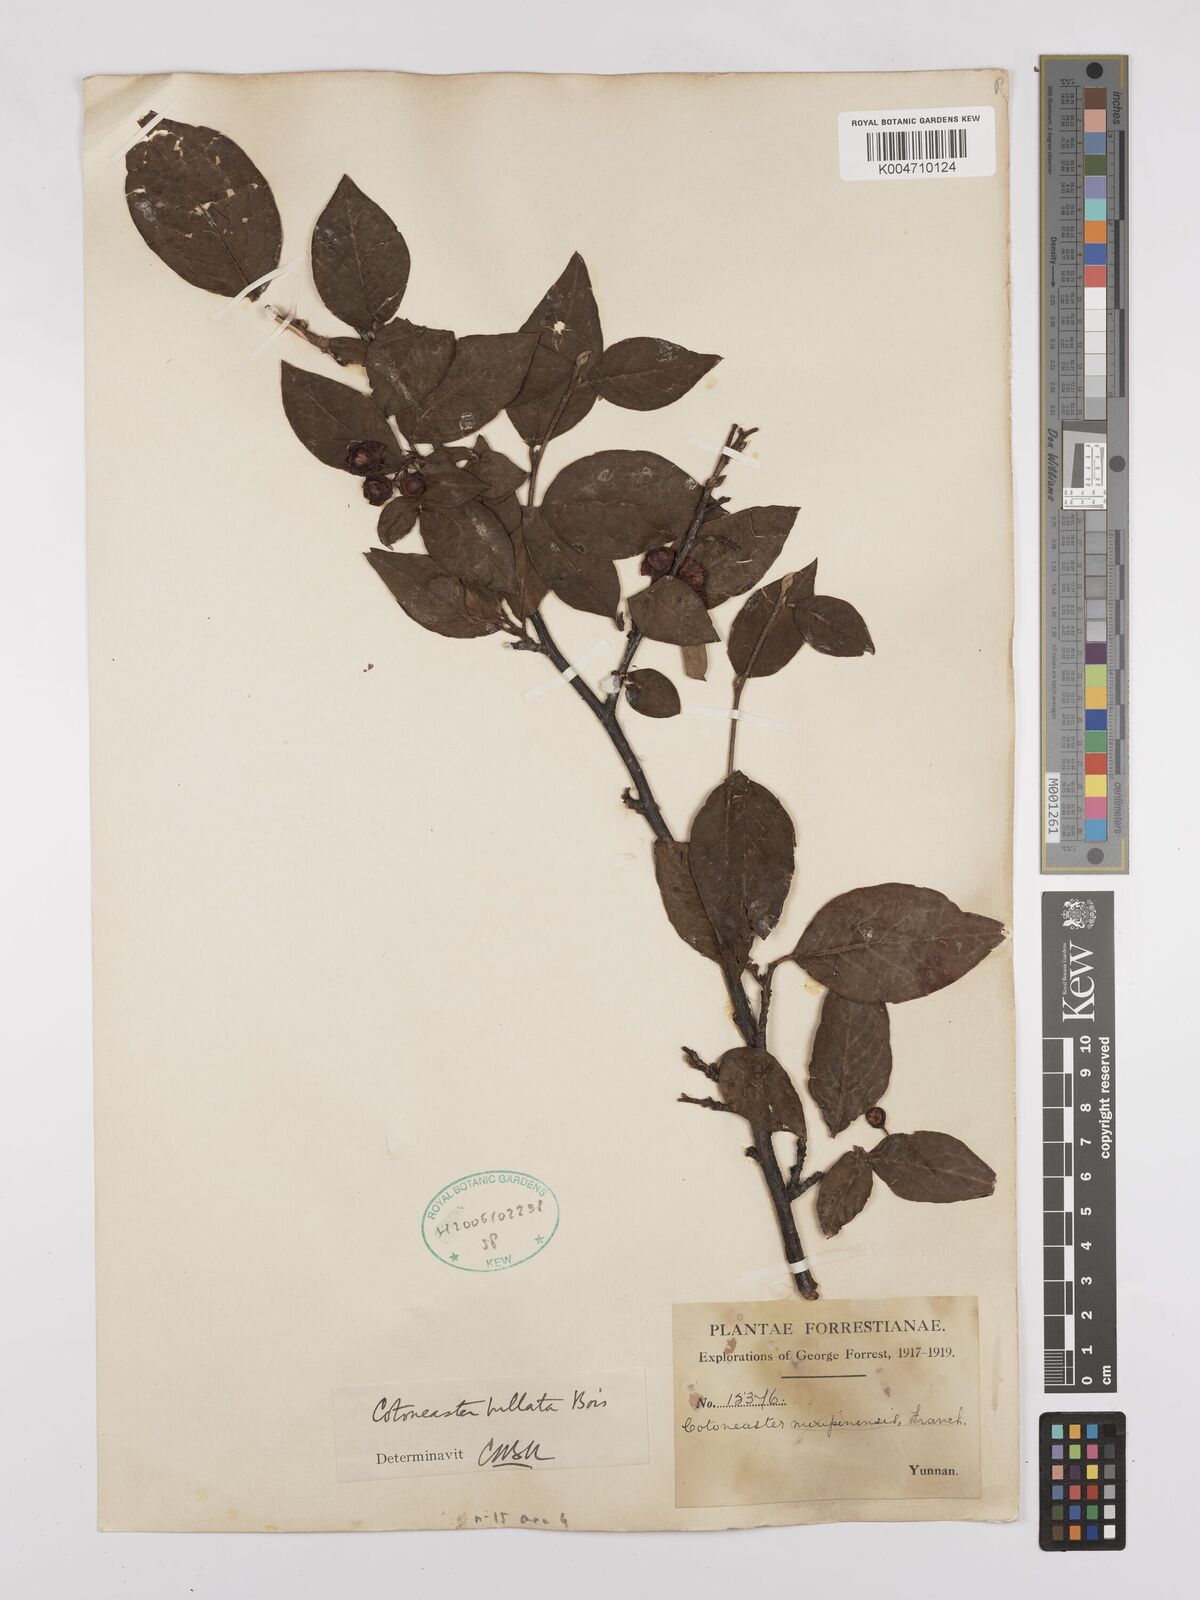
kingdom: Plantae
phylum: Tracheophyta
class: Magnoliopsida
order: Rosales
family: Rosaceae
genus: Cotoneaster
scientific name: Cotoneaster bullatus
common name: Hollyberry cotoneaster
